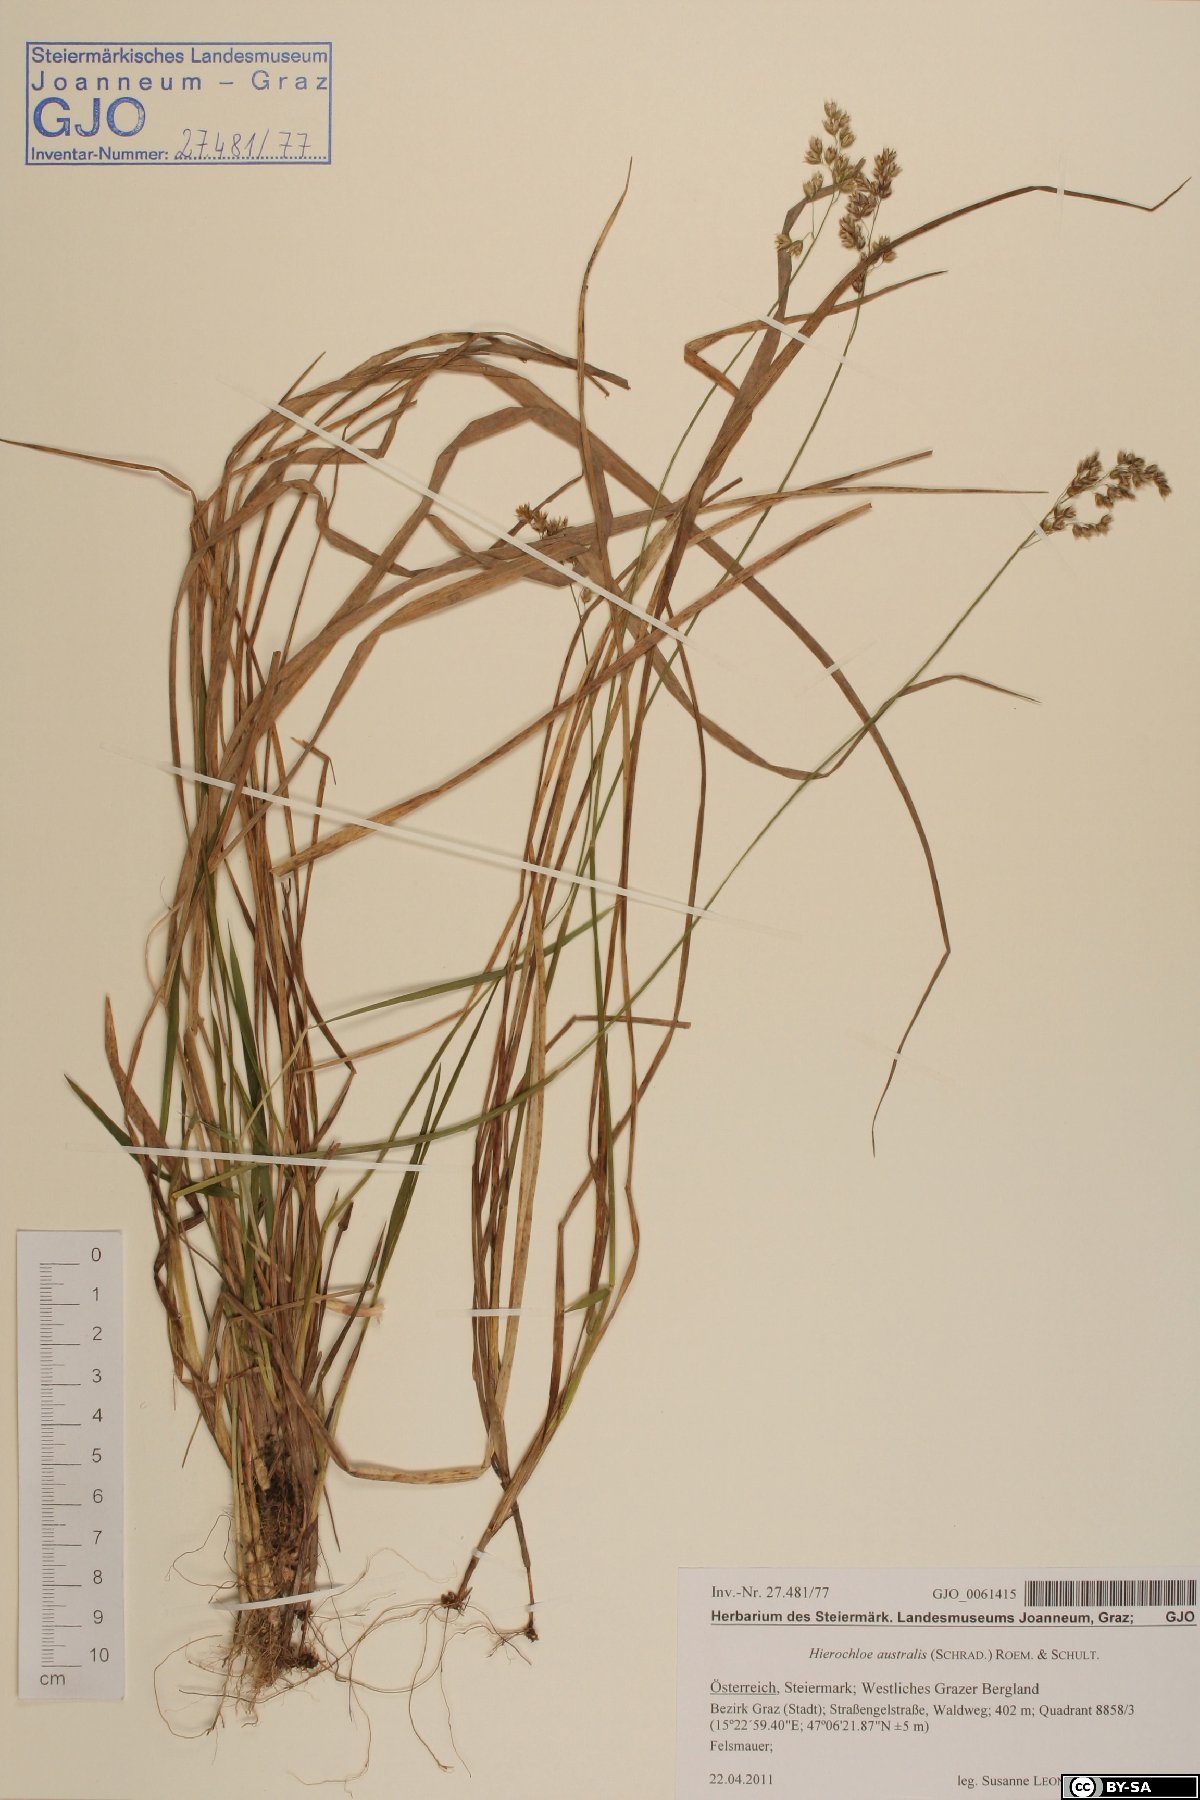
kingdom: Plantae
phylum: Tracheophyta
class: Liliopsida
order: Poales
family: Poaceae
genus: Anthoxanthum
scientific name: Anthoxanthum australe
